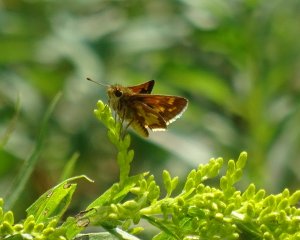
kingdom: Animalia
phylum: Arthropoda
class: Insecta
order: Lepidoptera
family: Hesperiidae
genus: Polites
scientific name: Polites coras
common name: Peck's Skipper
